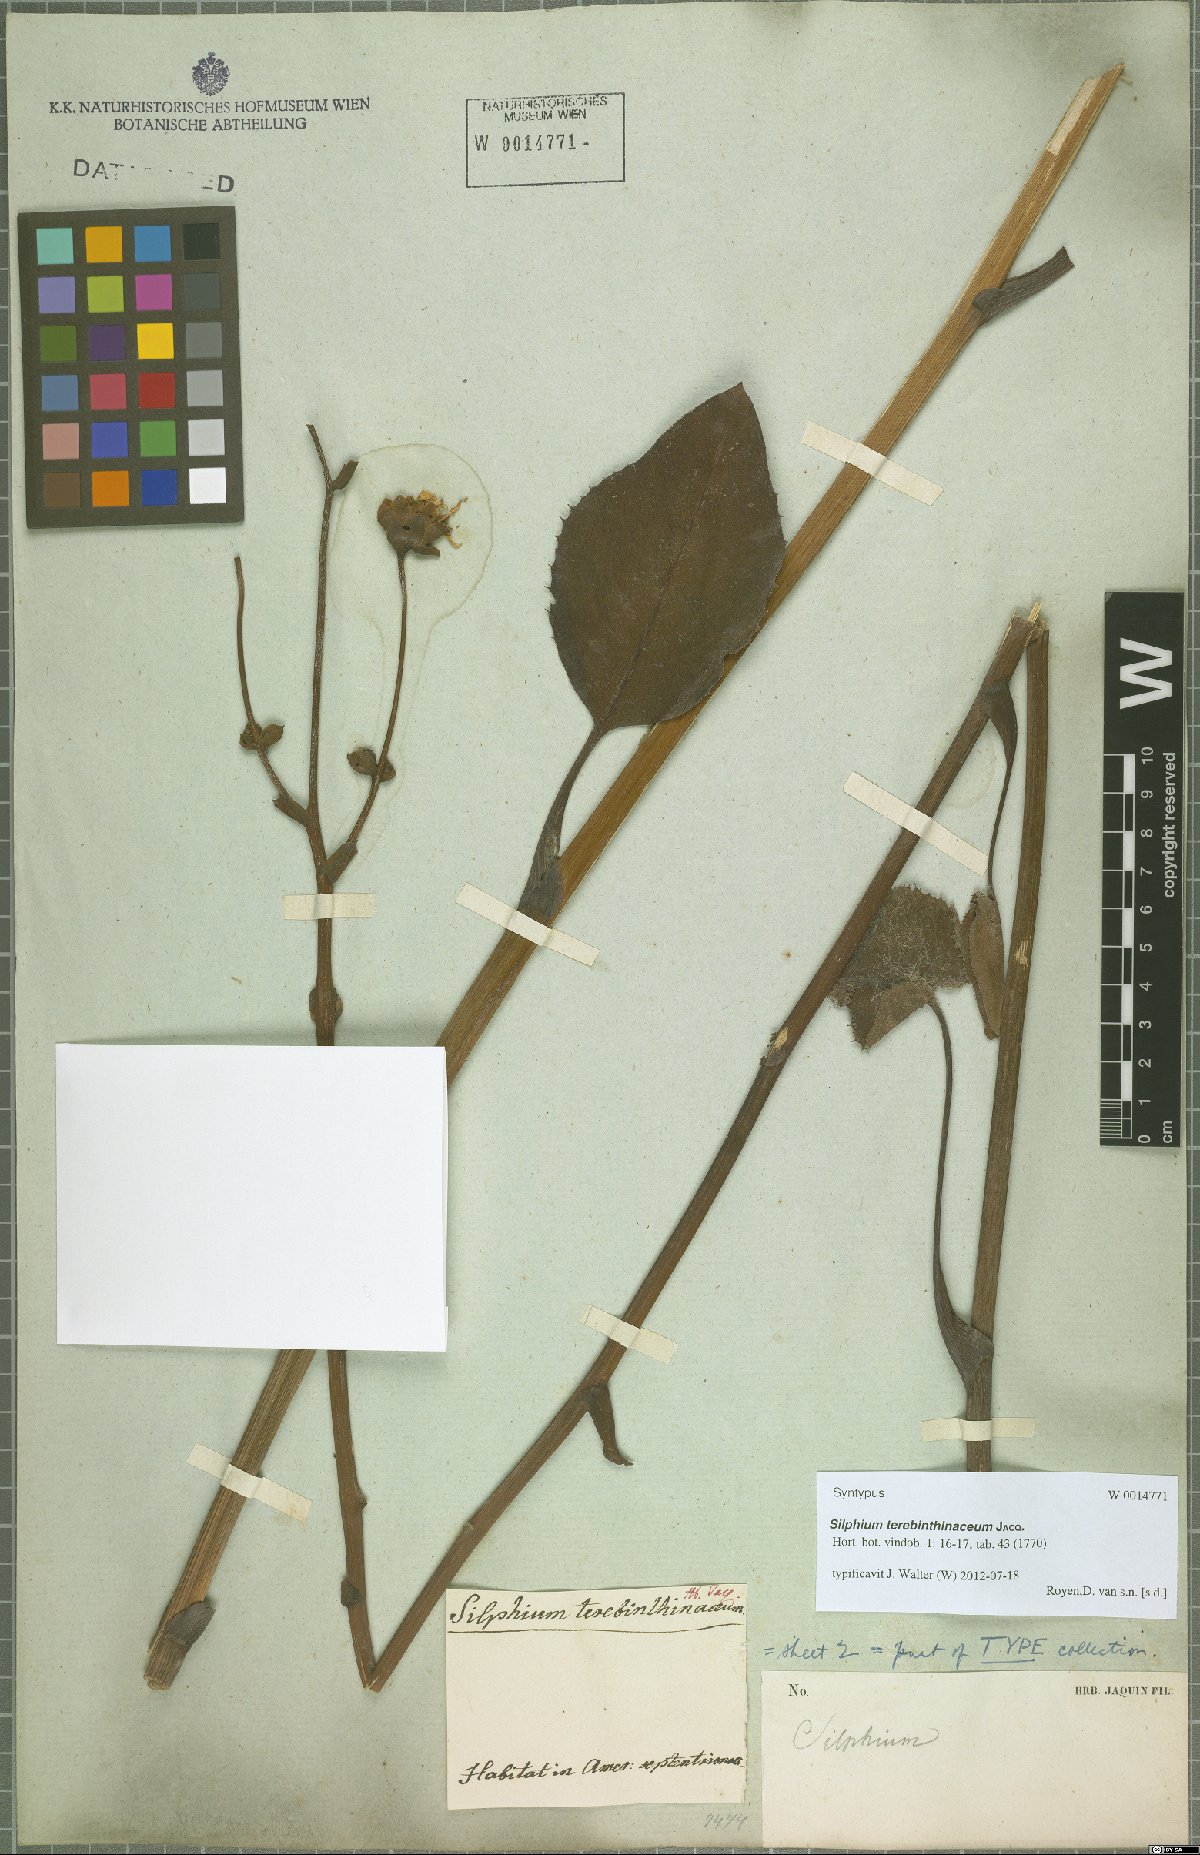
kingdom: Plantae
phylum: Tracheophyta
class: Magnoliopsida
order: Asterales
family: Asteraceae
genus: Silphium
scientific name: Silphium terebinthinaceum
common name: Basal-leaf rosinweed
